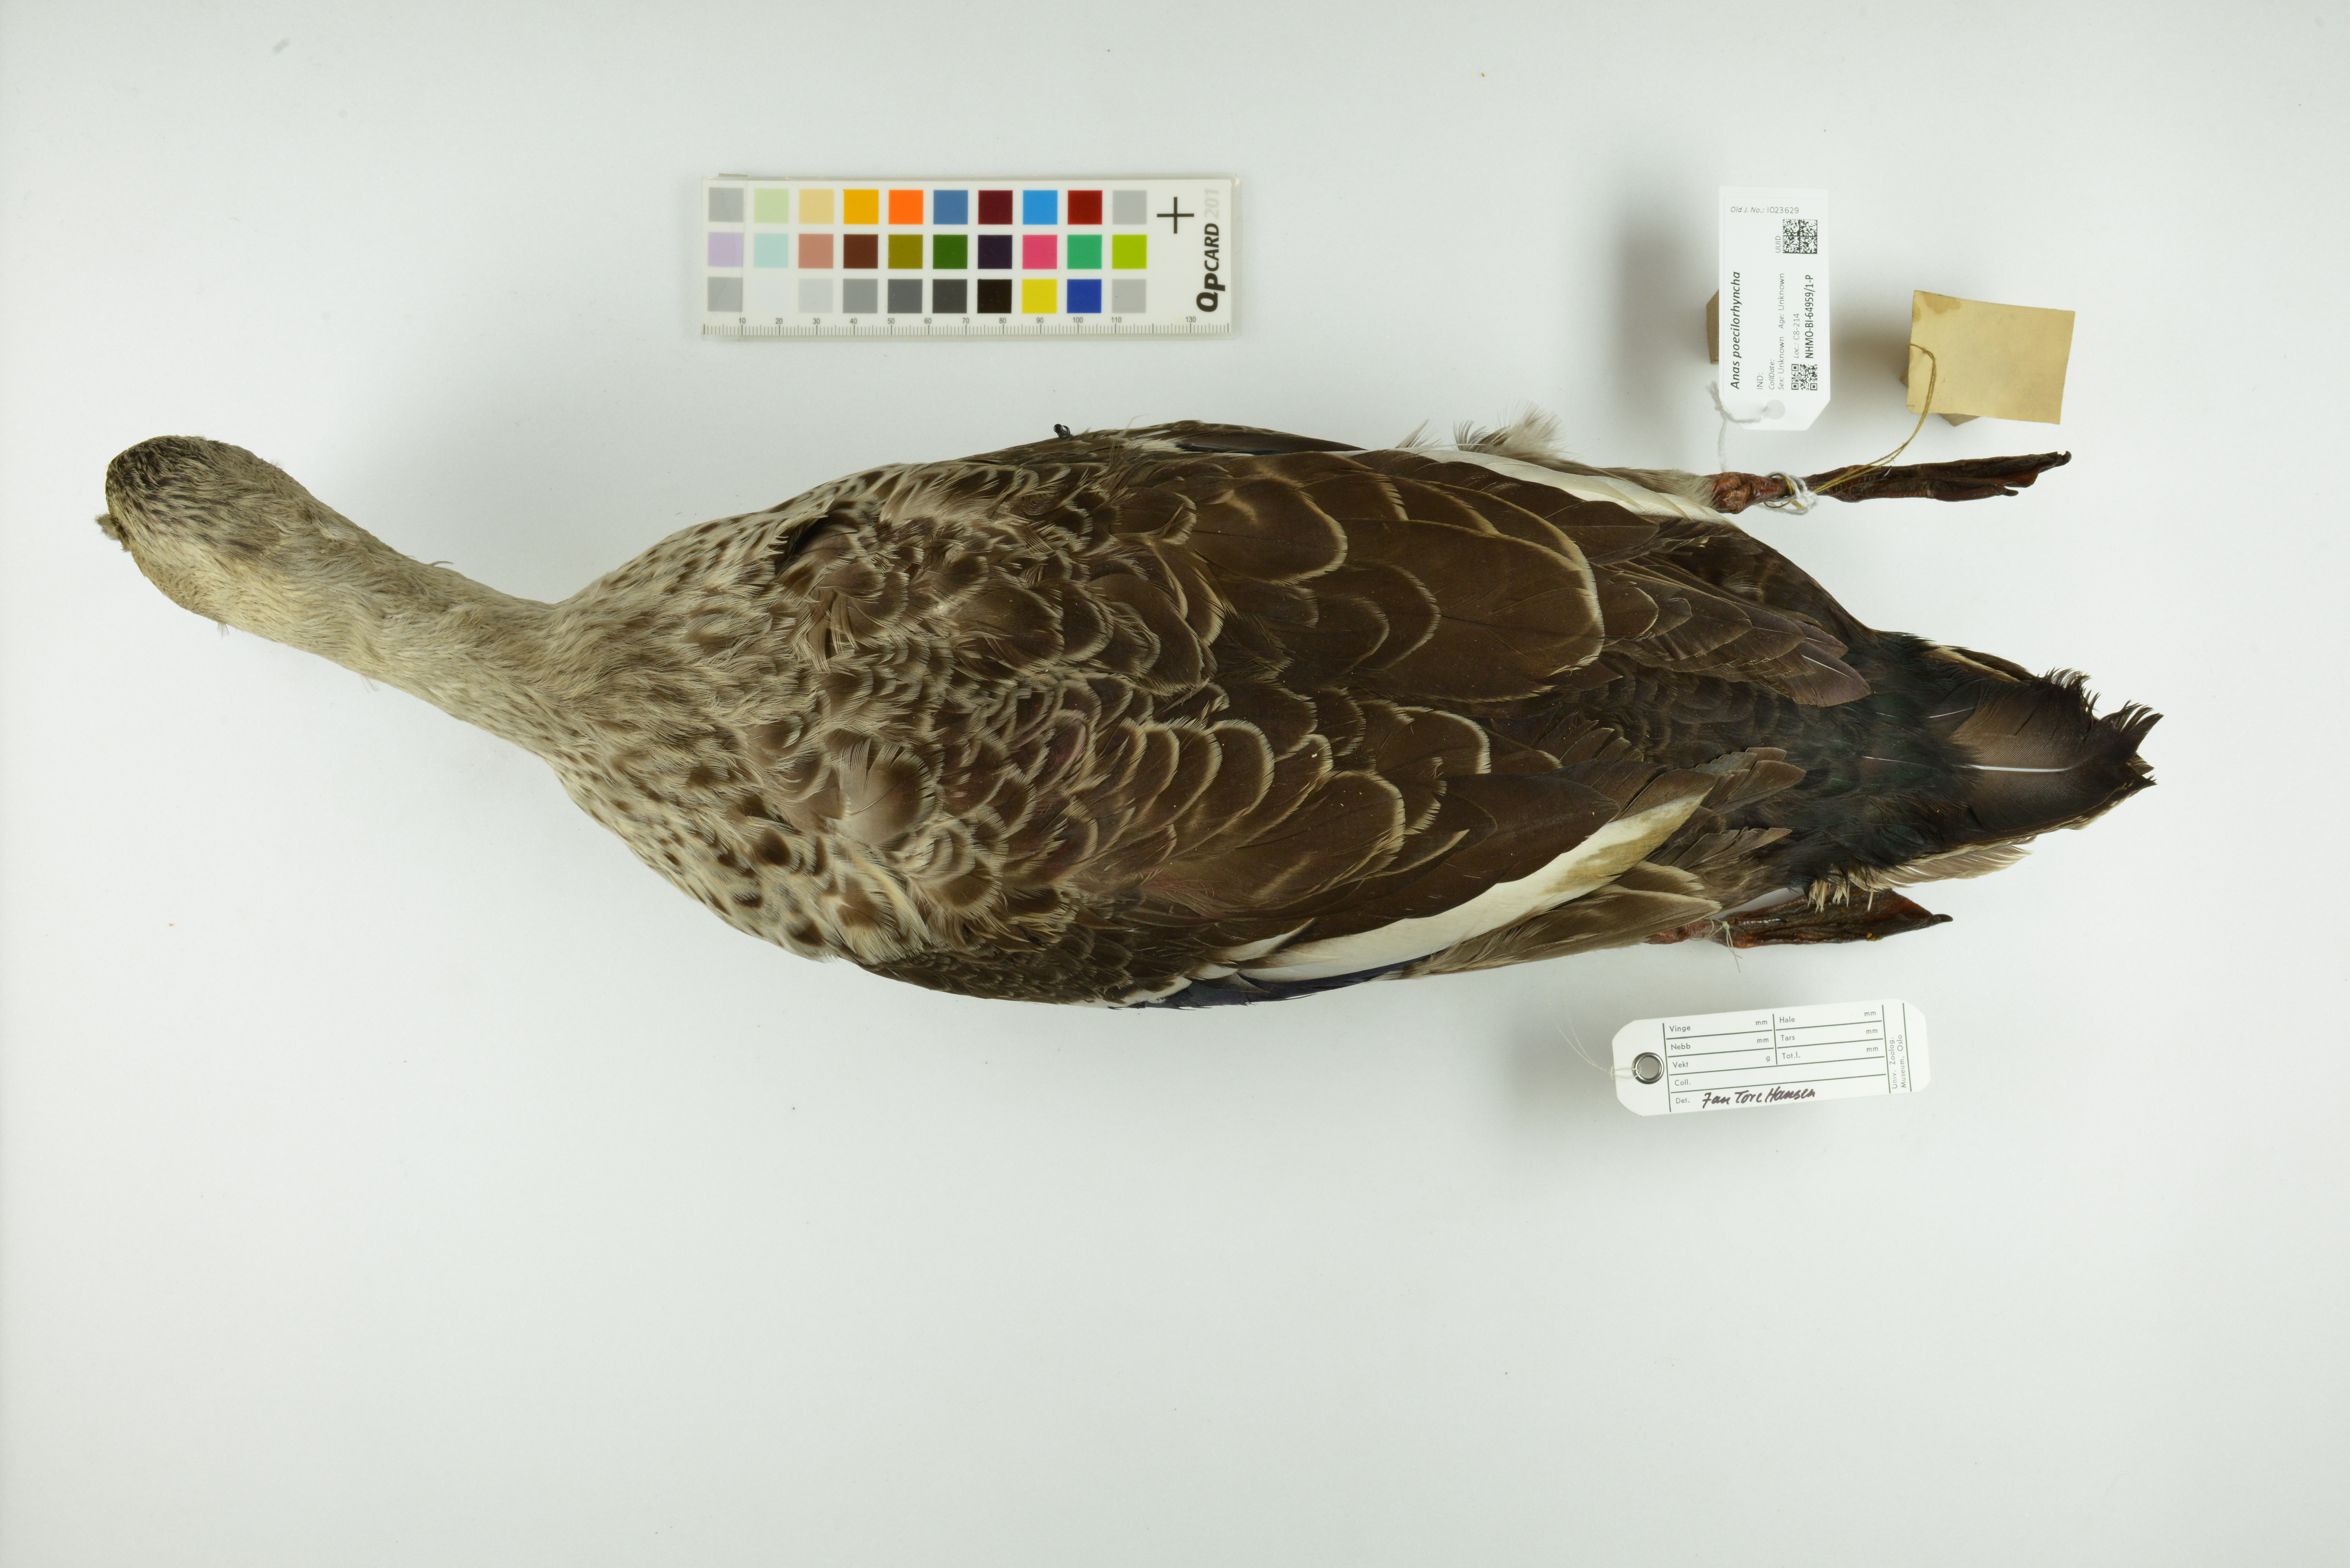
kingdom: Animalia
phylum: Chordata
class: Aves
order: Anseriformes
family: Anatidae
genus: Anas
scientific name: Anas poecilorhyncha
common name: Indian spot-billed duck
